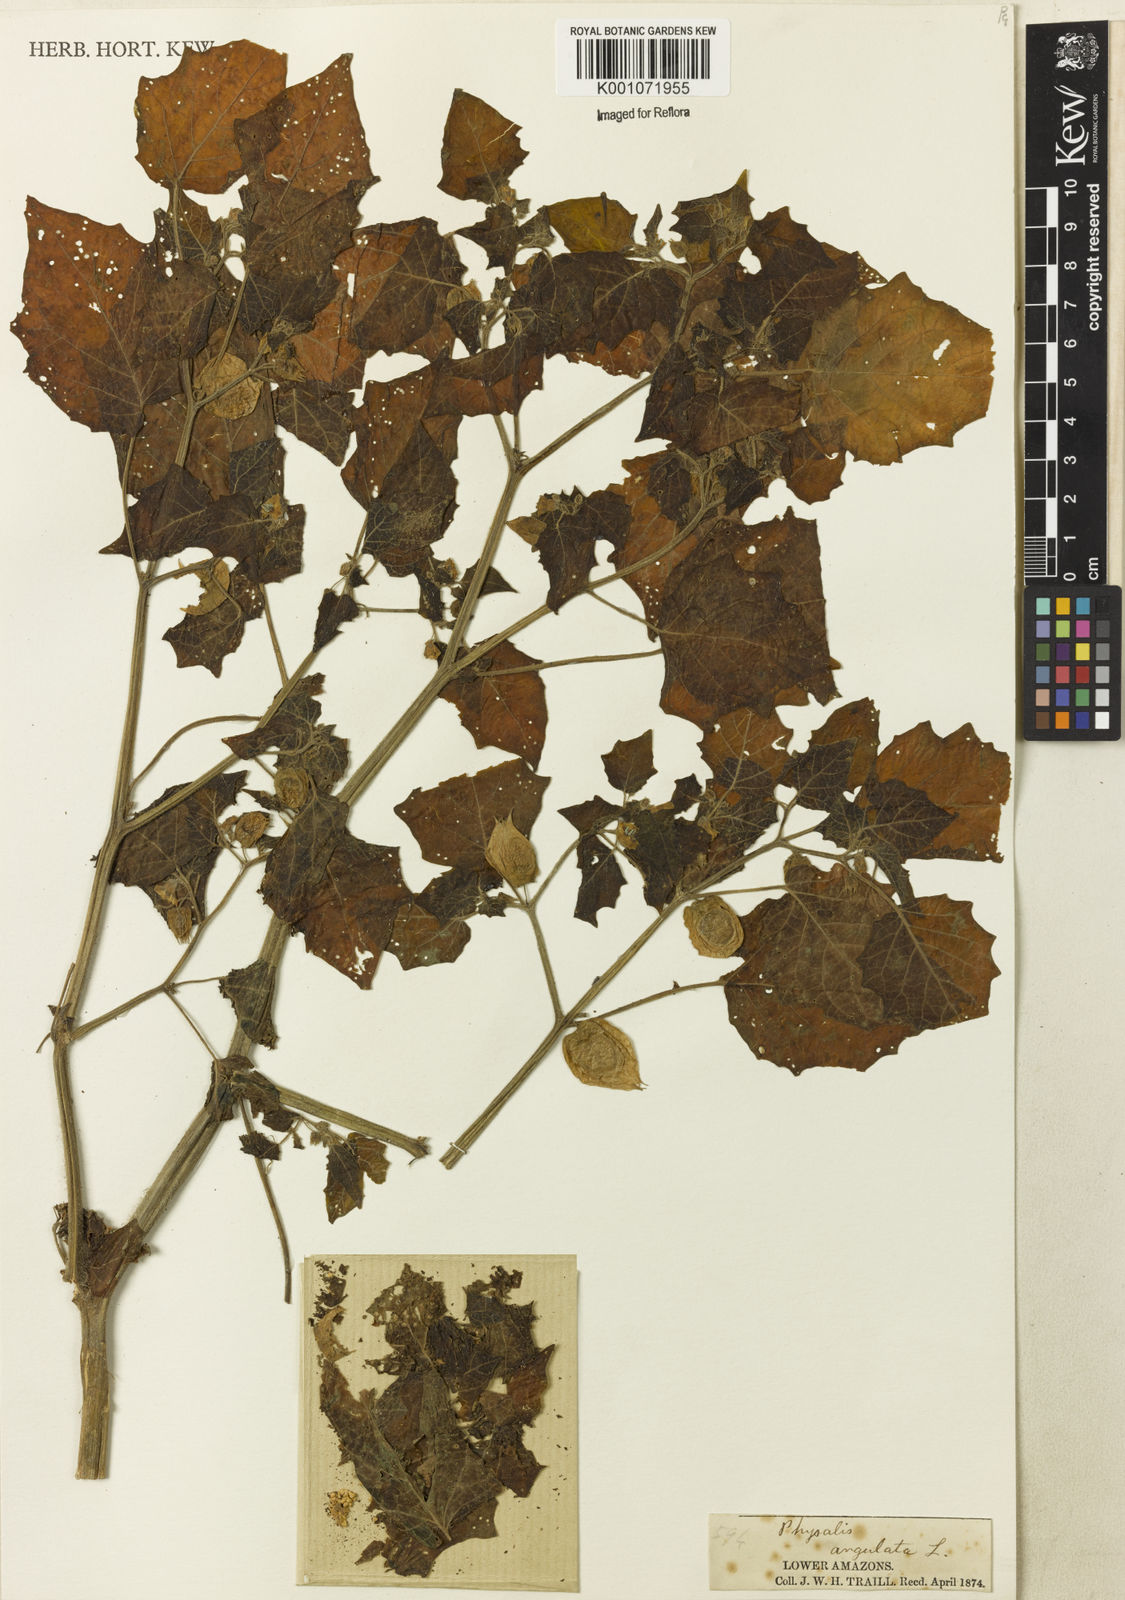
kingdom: Plantae
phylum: Tracheophyta
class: Magnoliopsida
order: Solanales
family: Solanaceae
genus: Physalis
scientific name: Physalis angulata
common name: Angular winter-cherry
